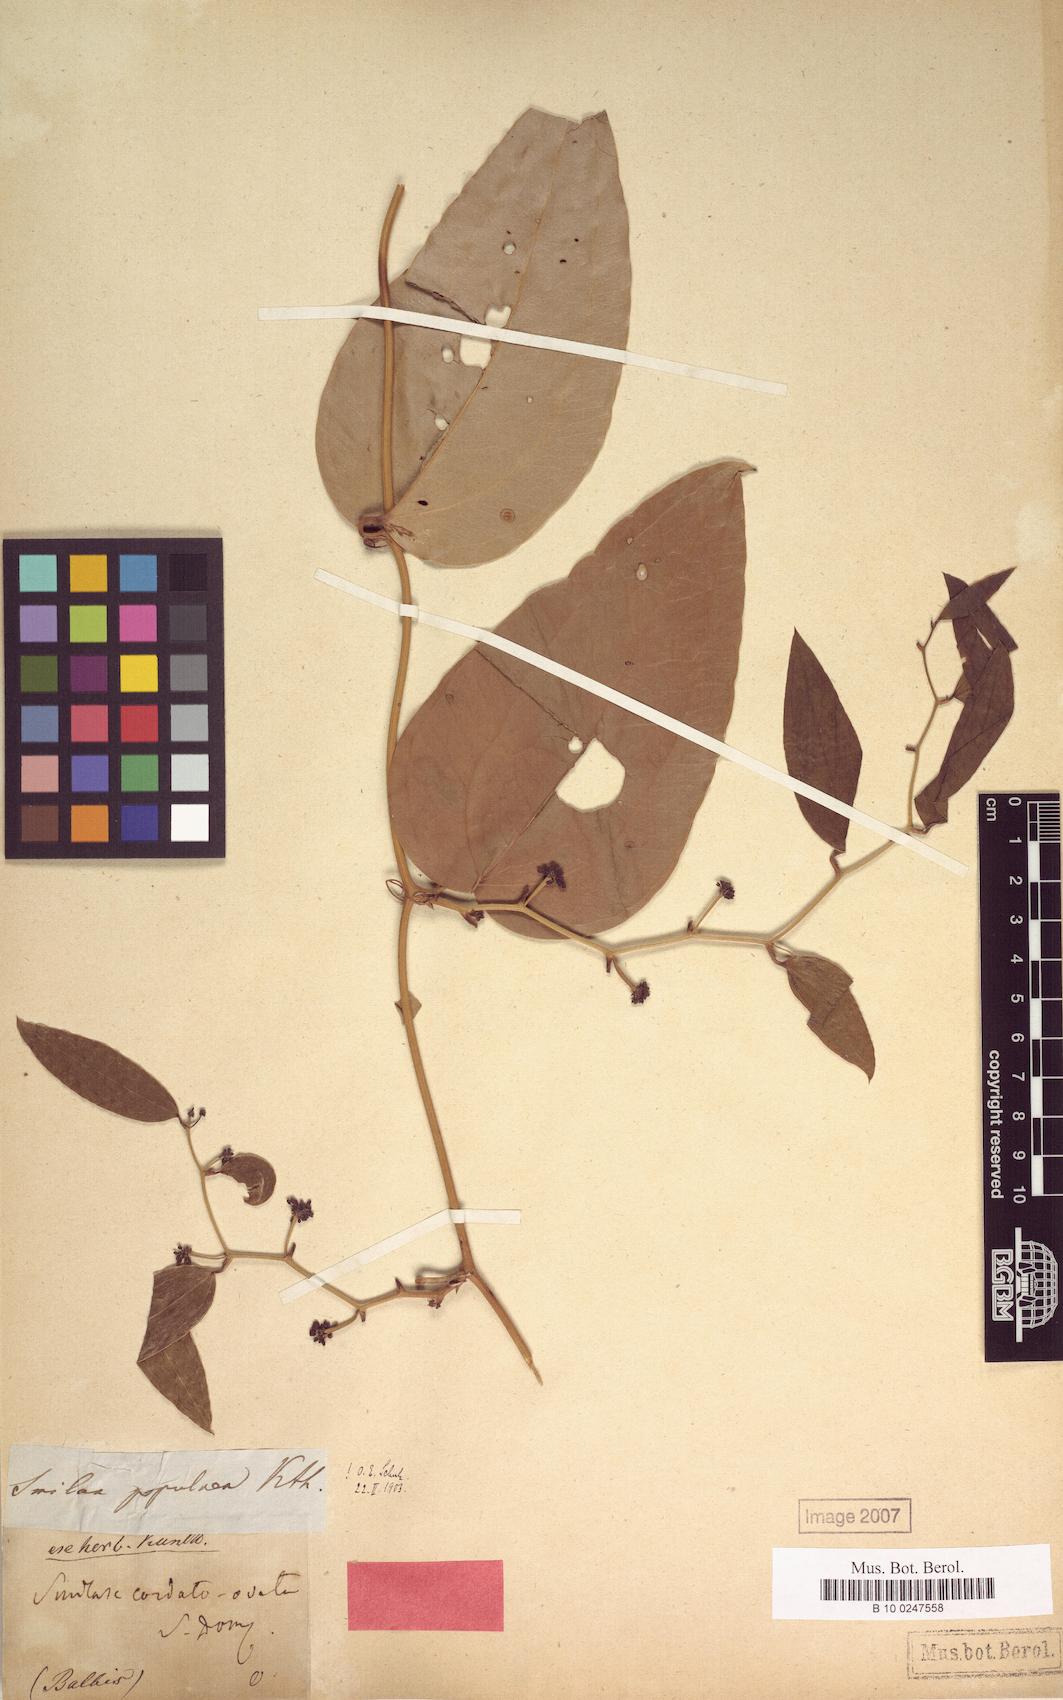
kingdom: Plantae
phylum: Tracheophyta
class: Liliopsida
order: Liliales
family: Smilacaceae
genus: Smilax
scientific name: Smilax populnea
